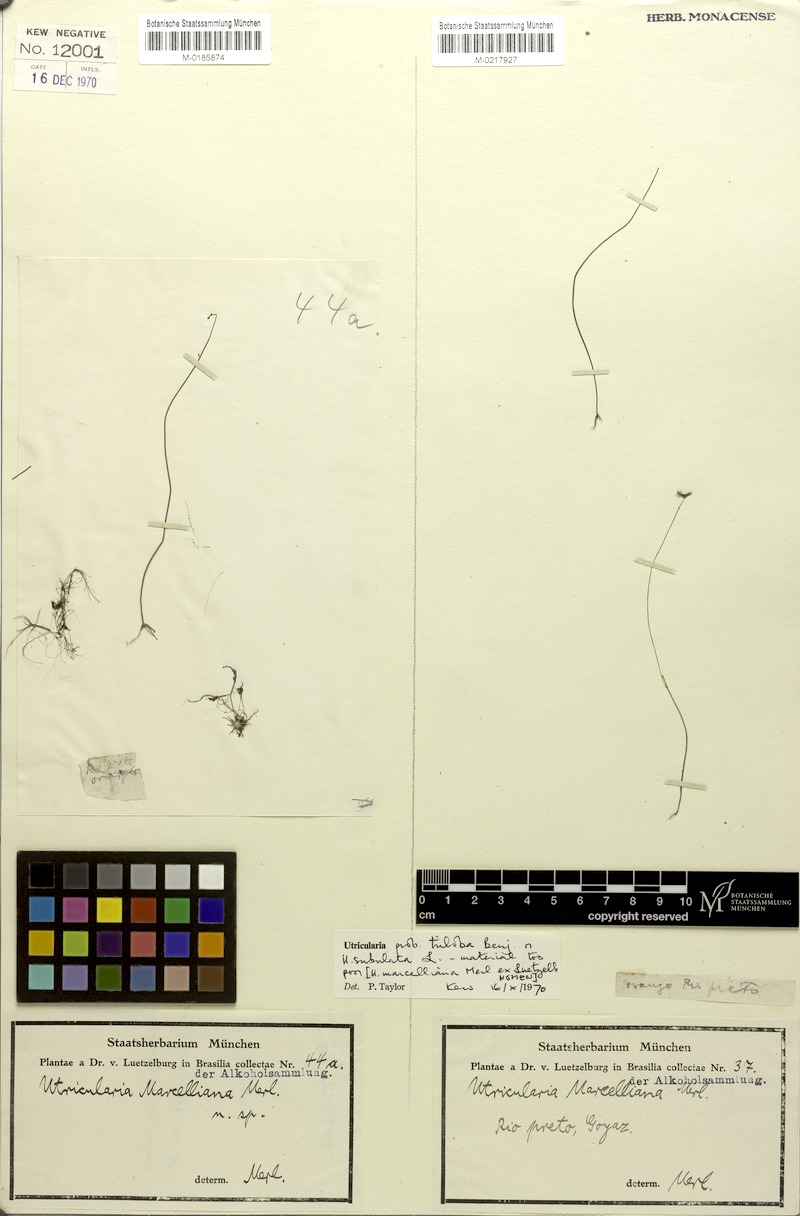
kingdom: Plantae
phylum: Tracheophyta
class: Magnoliopsida
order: Lamiales
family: Lentibulariaceae
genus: Utricularia
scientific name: Utricularia subulata
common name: Tiny bladderwort
